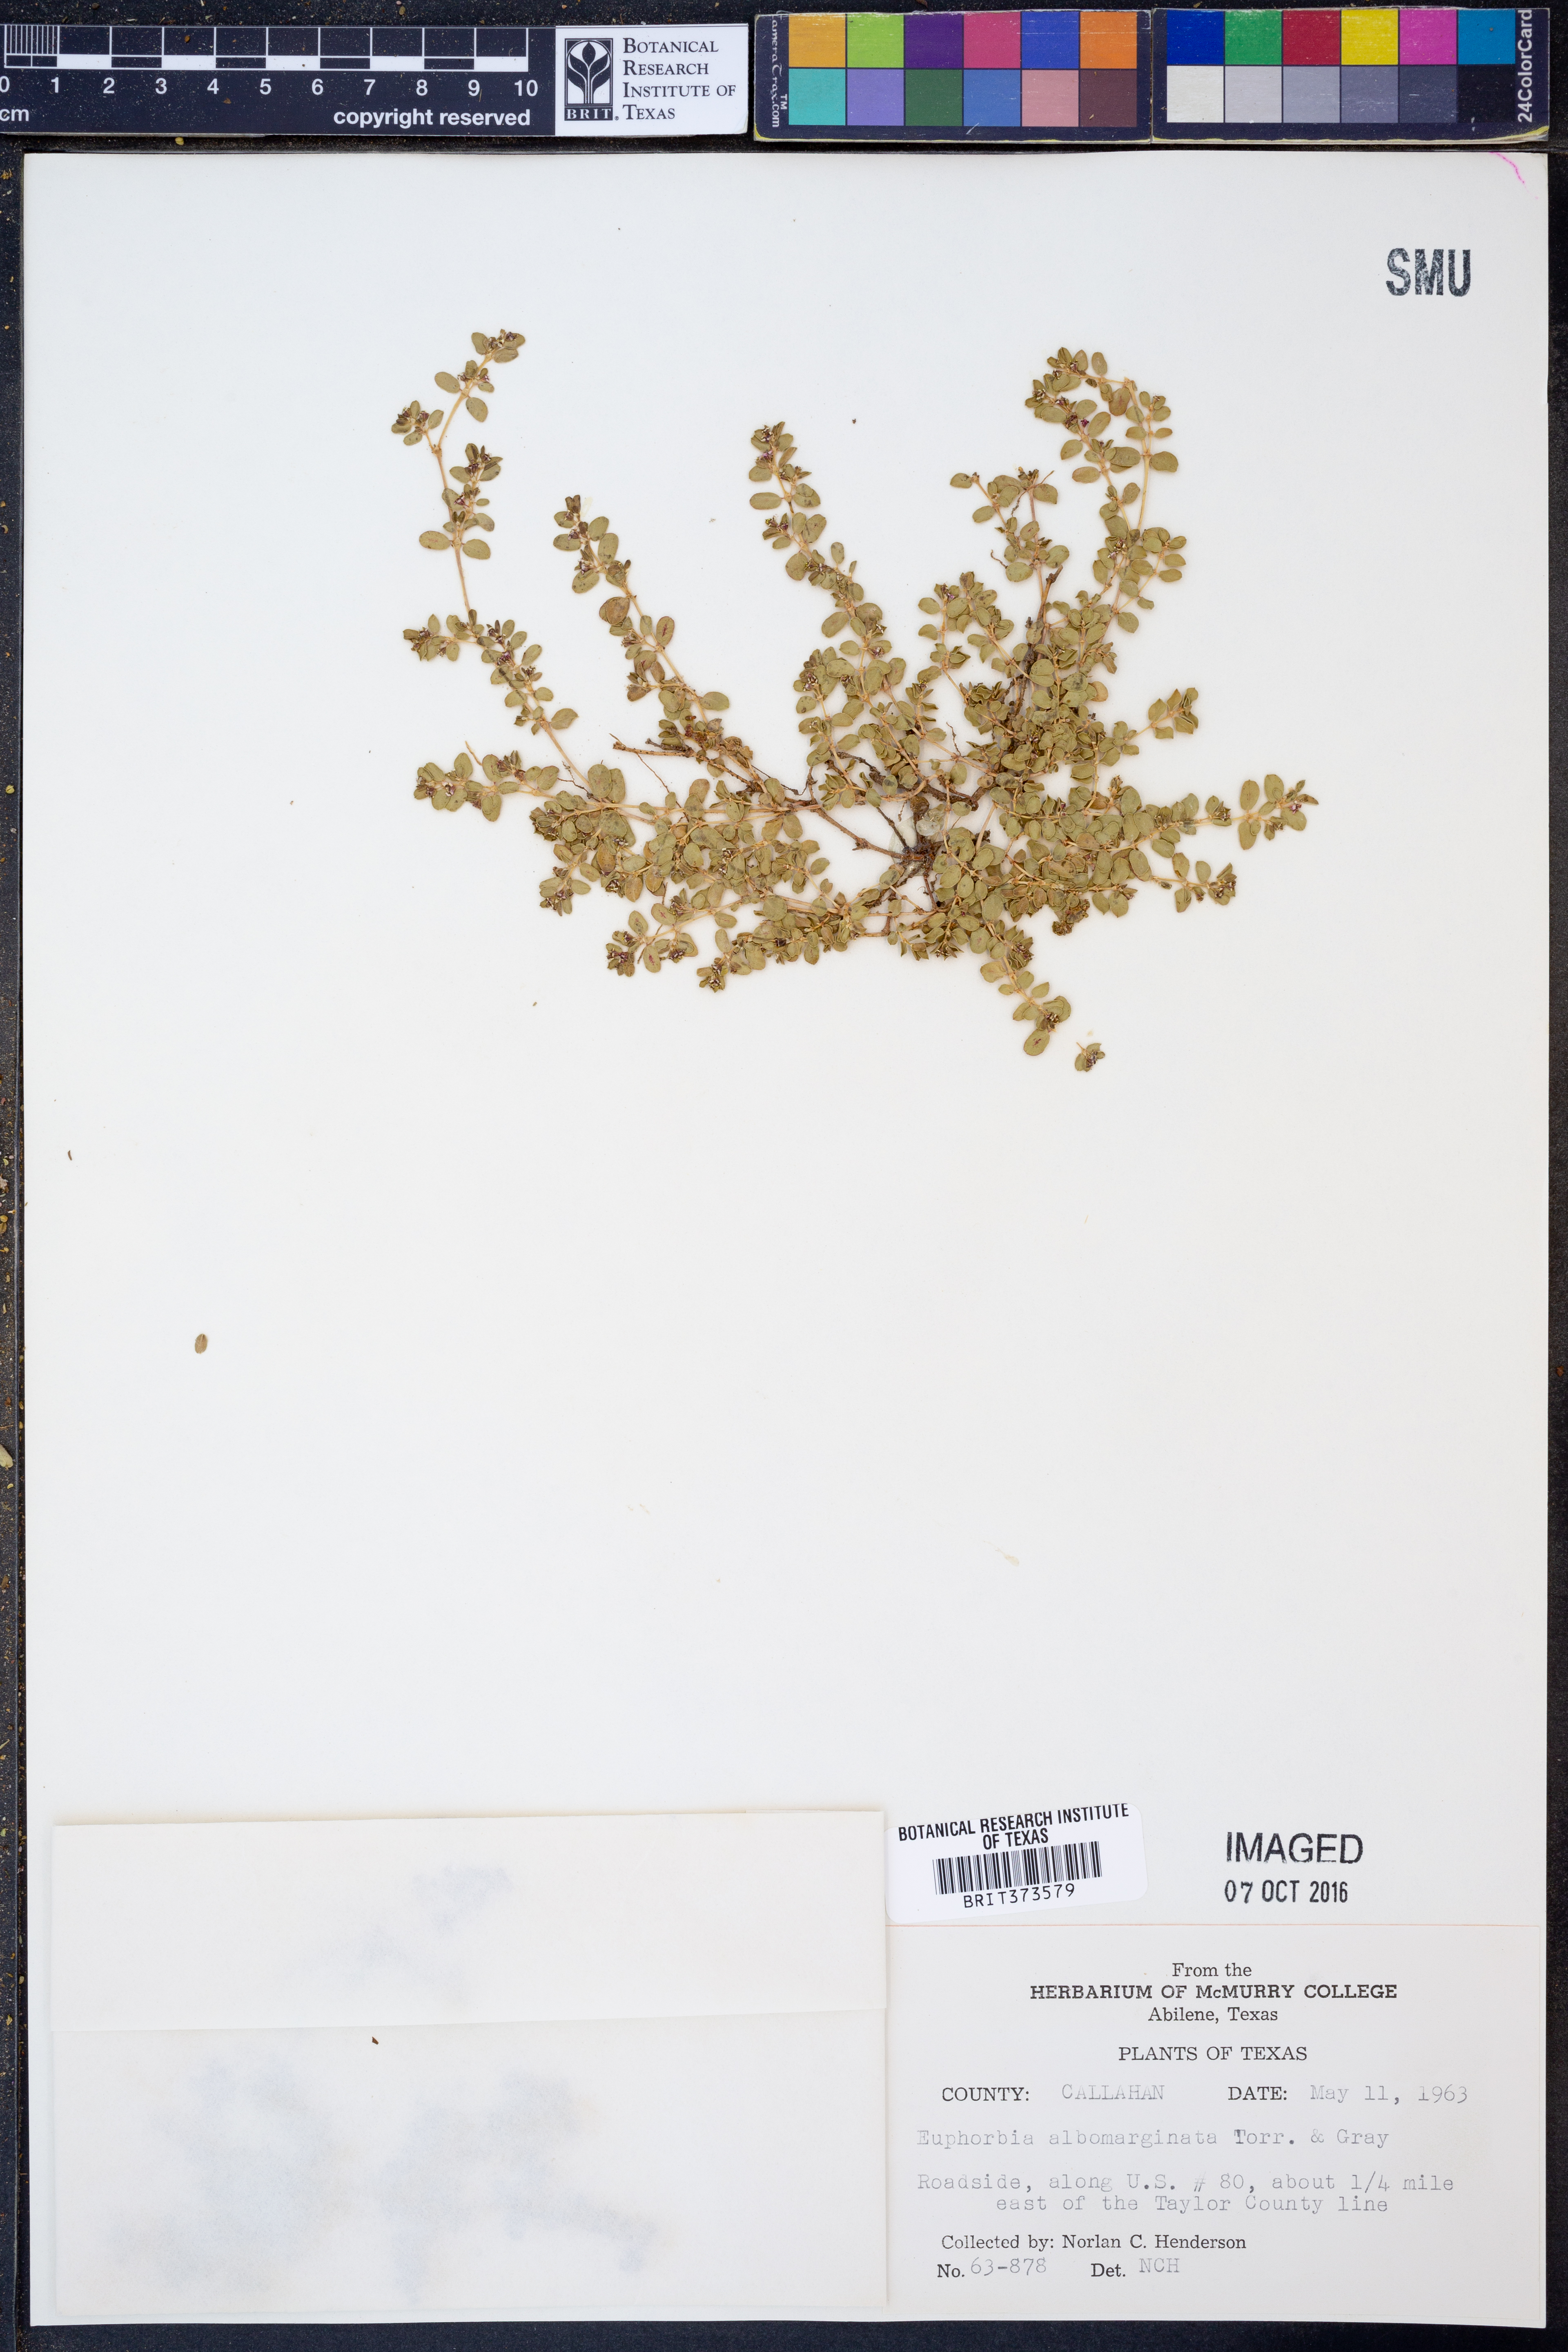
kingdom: Plantae
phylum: Tracheophyta
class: Magnoliopsida
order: Malpighiales
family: Euphorbiaceae
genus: Euphorbia
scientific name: Euphorbia albomarginata
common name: Whitemargin sandmat
